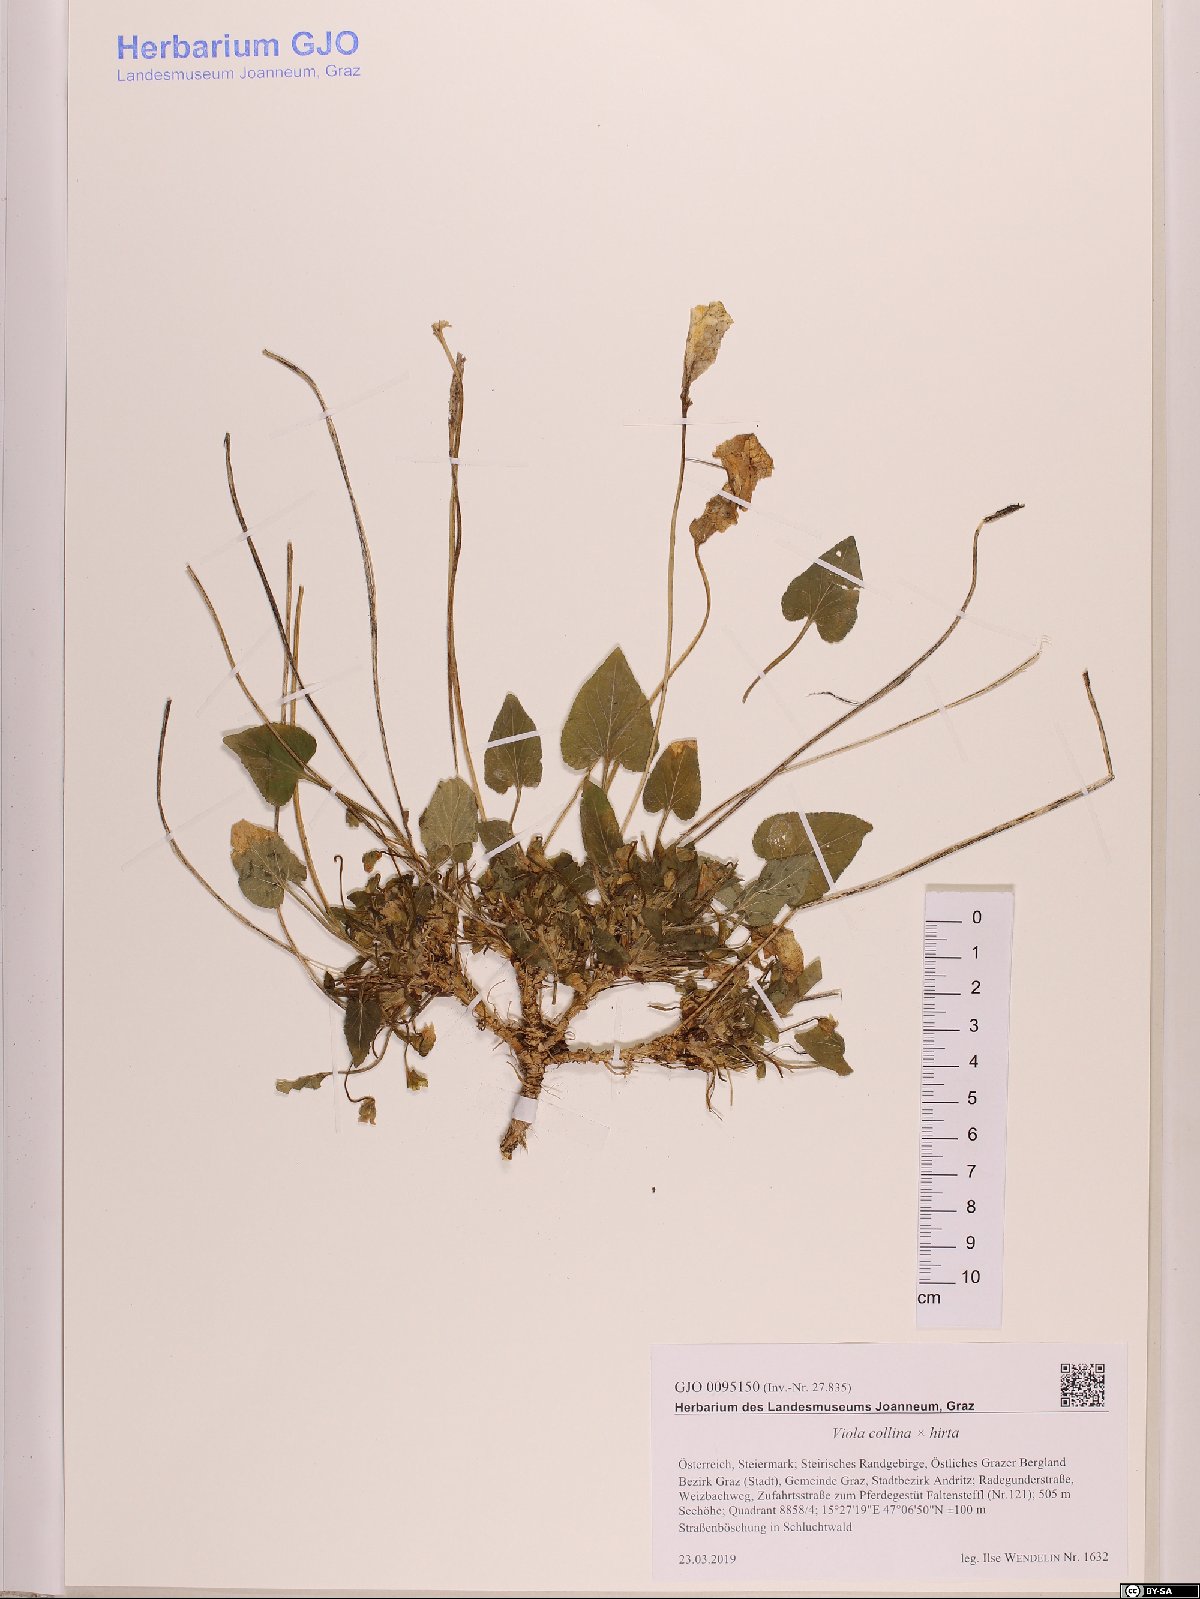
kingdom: Plantae
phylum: Tracheophyta
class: Magnoliopsida
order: Malpighiales
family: Violaceae
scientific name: Violaceae
